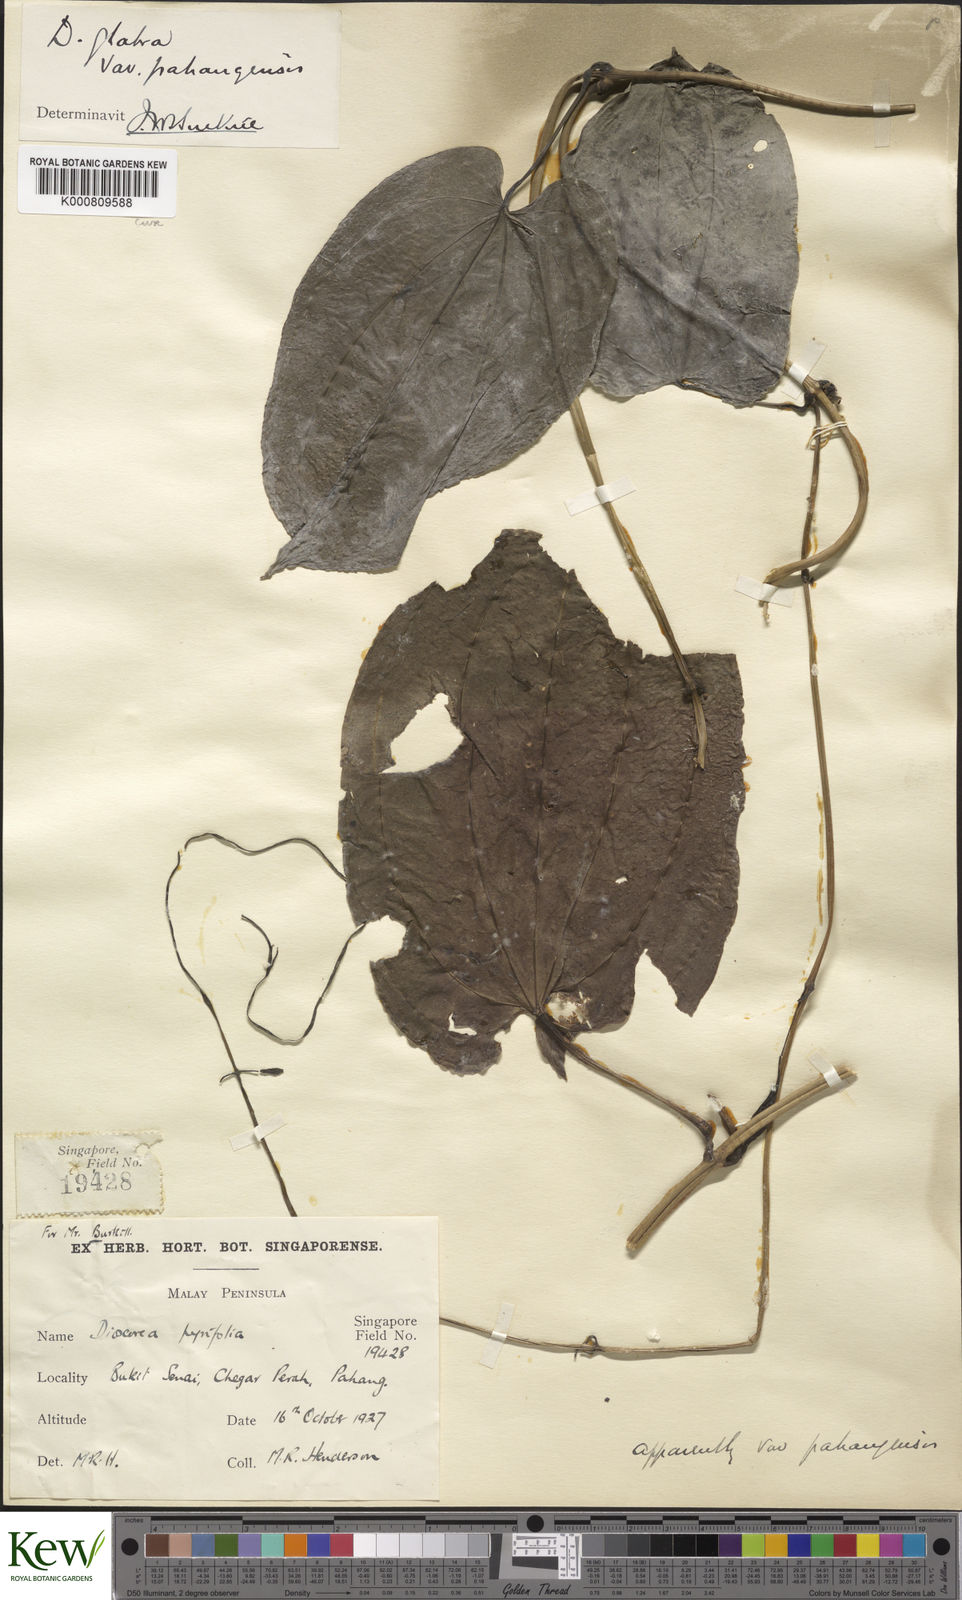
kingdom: Plantae
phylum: Tracheophyta
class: Liliopsida
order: Dioscoreales
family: Dioscoreaceae
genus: Dioscorea
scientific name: Dioscorea glabra
